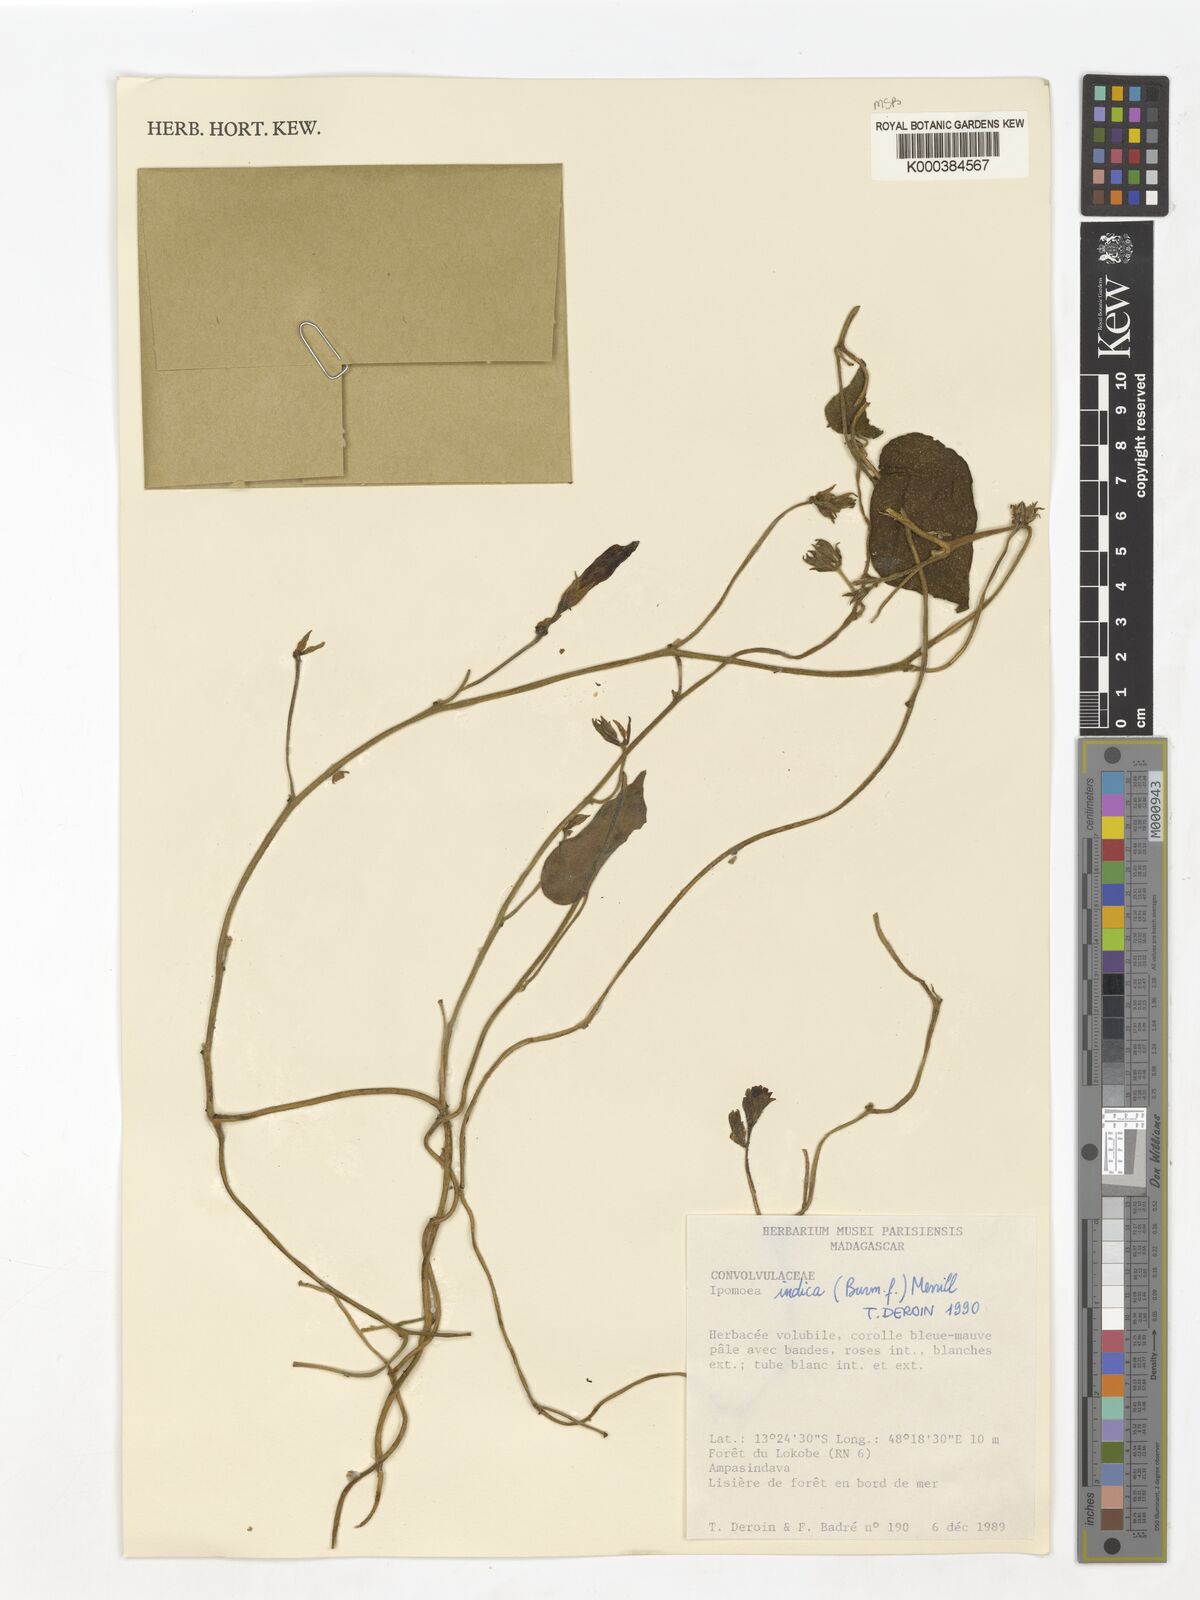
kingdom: Plantae
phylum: Tracheophyta
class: Magnoliopsida
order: Solanales
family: Convolvulaceae
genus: Ipomoea
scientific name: Ipomoea indica
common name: Blue dawnflower
